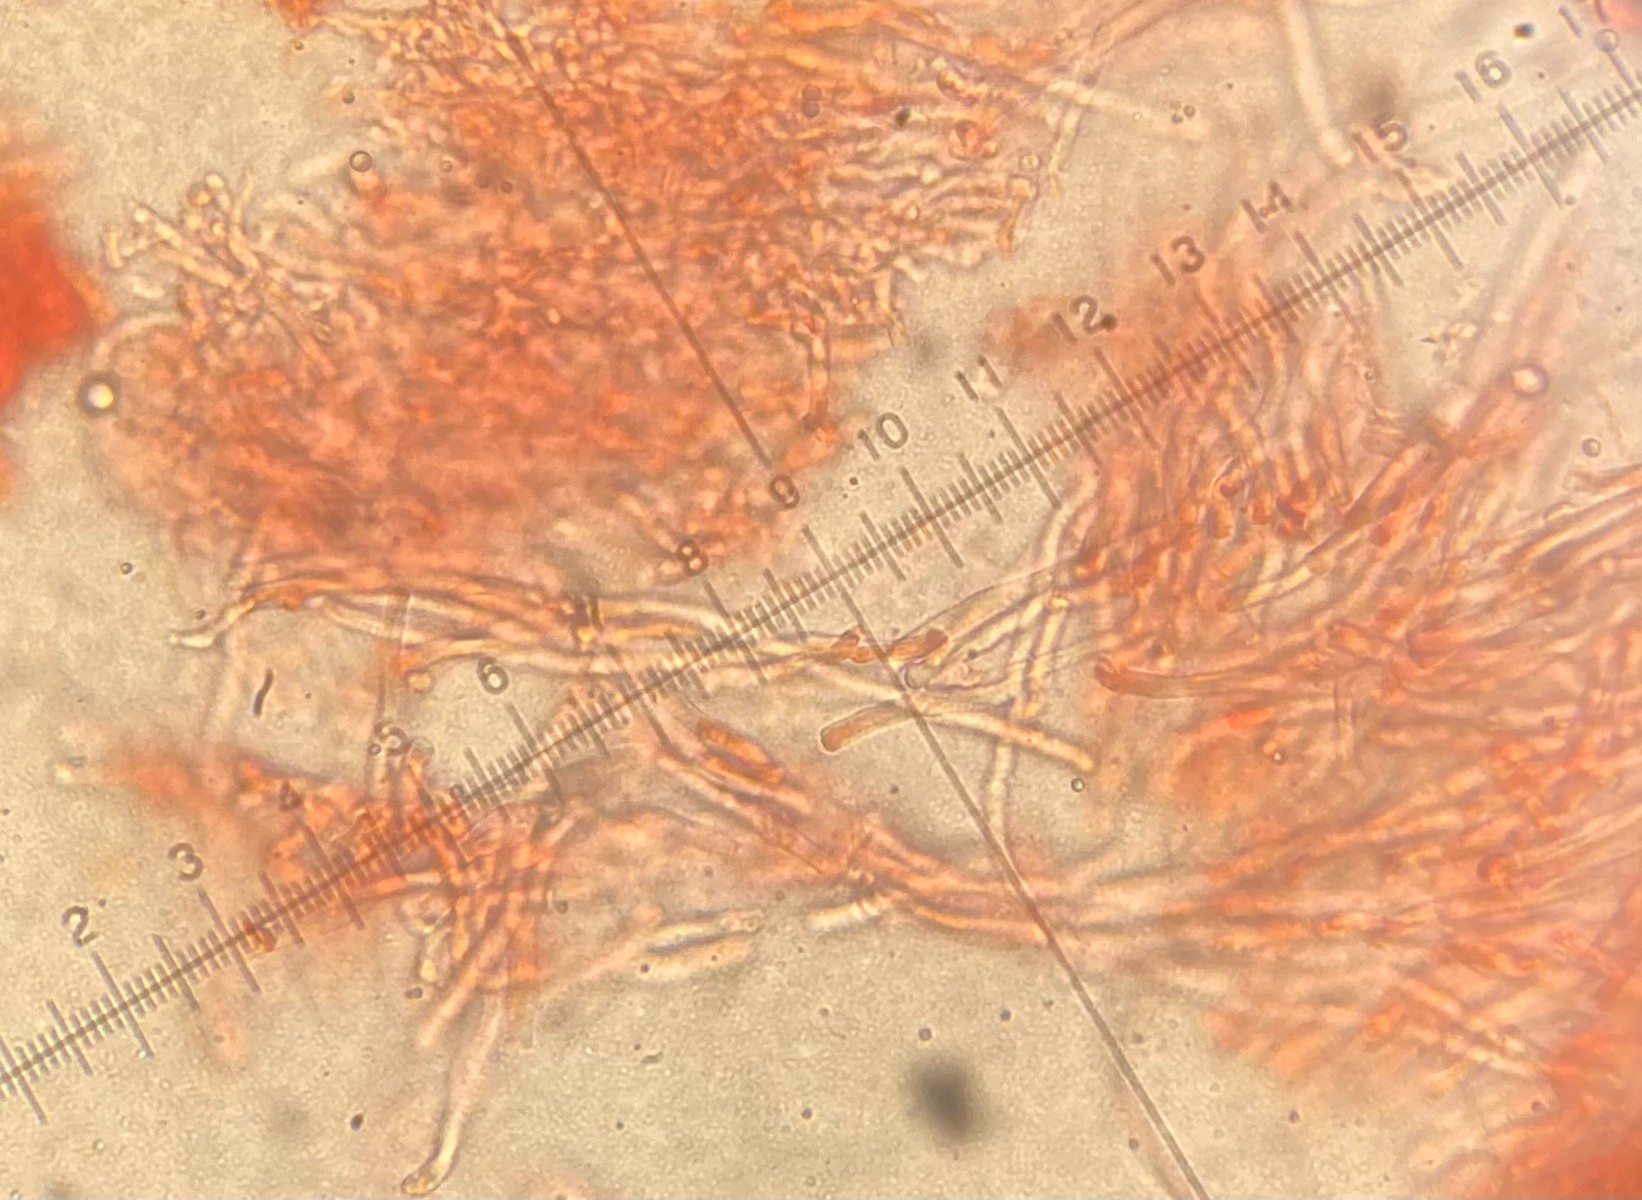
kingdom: Fungi
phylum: Basidiomycota
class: Agaricomycetes
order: Polyporales
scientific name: Polyporales
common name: poresvampordenen
